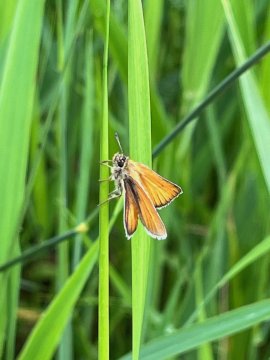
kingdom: Animalia
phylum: Arthropoda
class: Insecta
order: Lepidoptera
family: Hesperiidae
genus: Thymelicus
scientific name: Thymelicus lineola
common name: European Skipper
